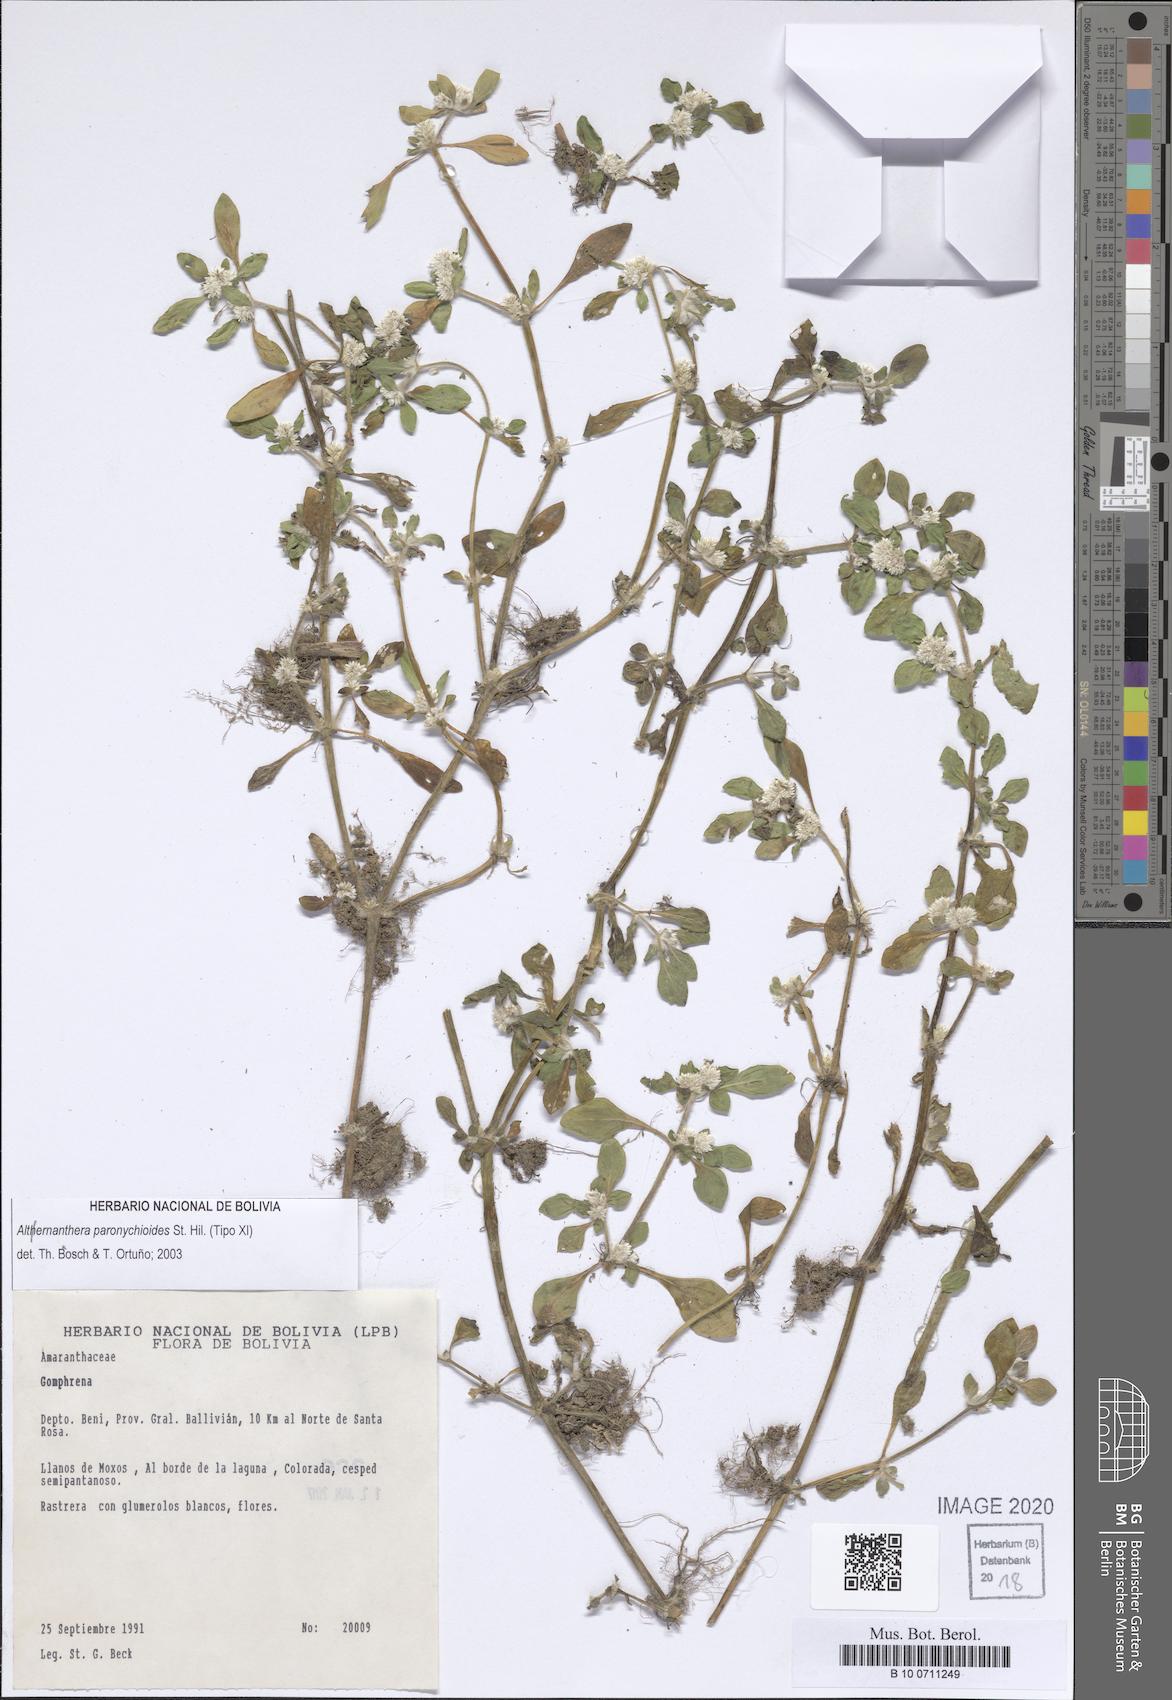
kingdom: Plantae
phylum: Tracheophyta
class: Magnoliopsida
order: Caryophyllales
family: Amaranthaceae
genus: Alternanthera
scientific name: Alternanthera paronychioides
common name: Smooth joyweed
